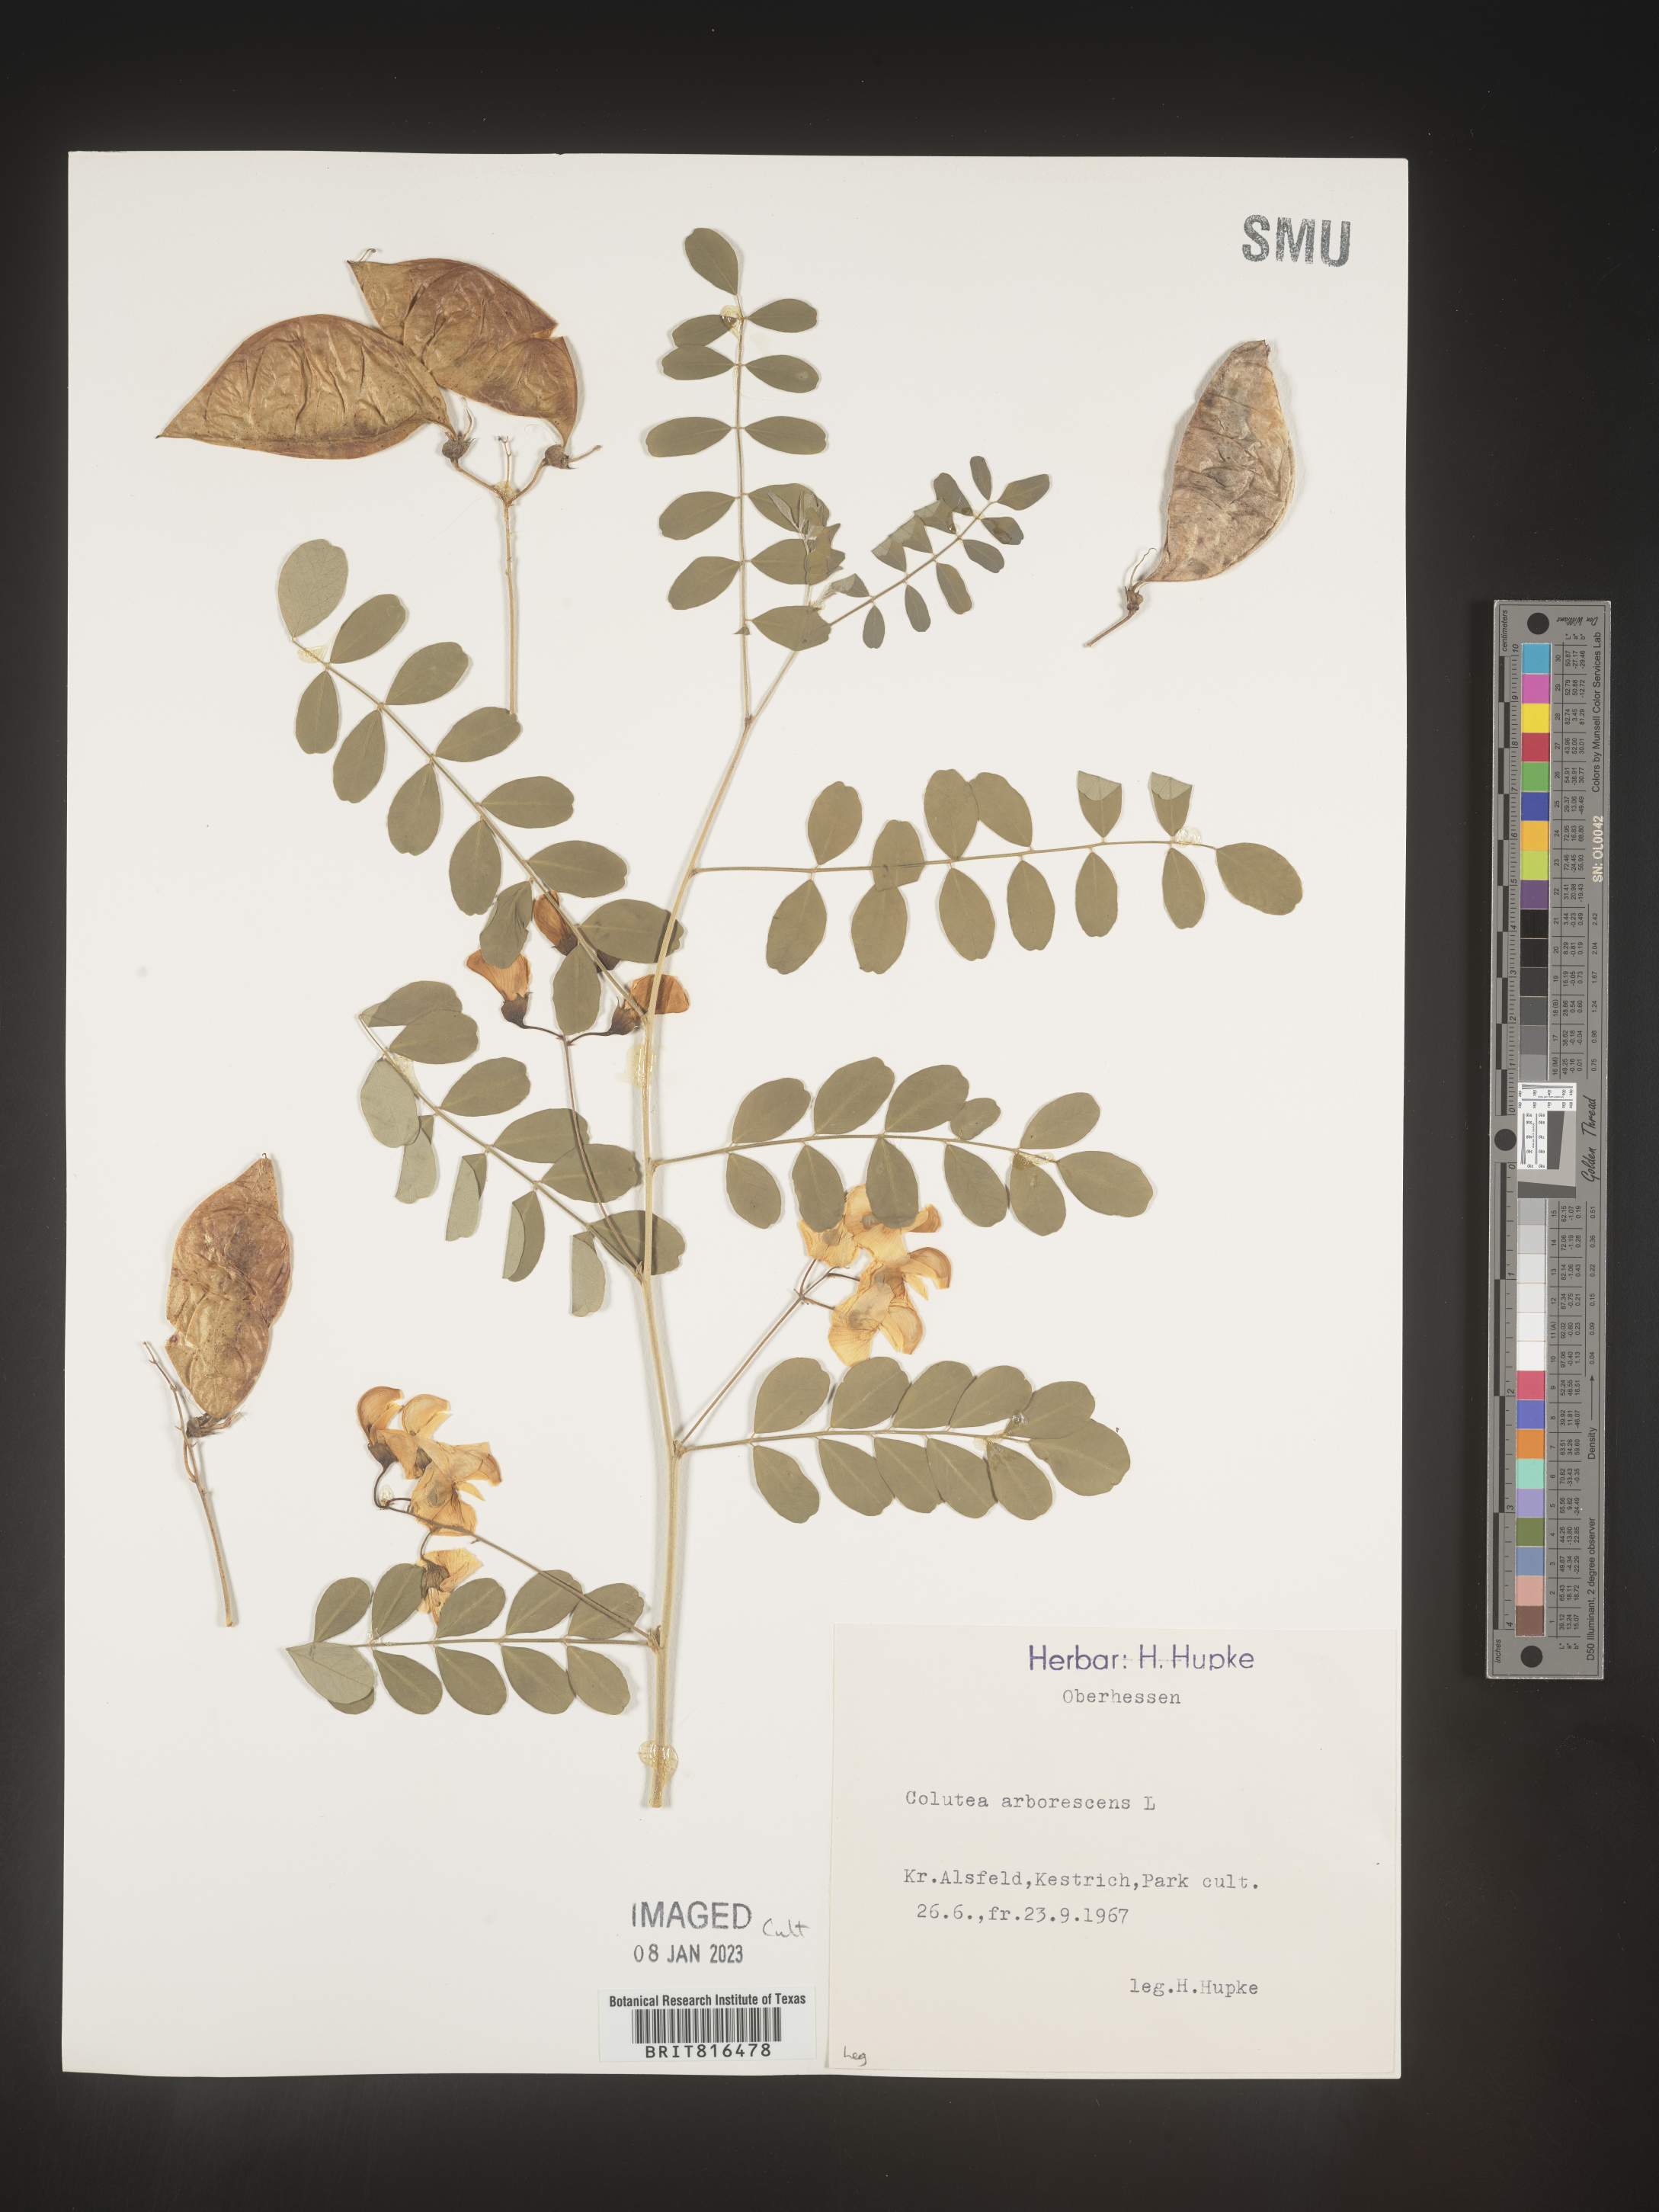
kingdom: Plantae
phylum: Tracheophyta
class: Magnoliopsida
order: Fabales
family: Fabaceae
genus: Colutea
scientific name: Colutea
